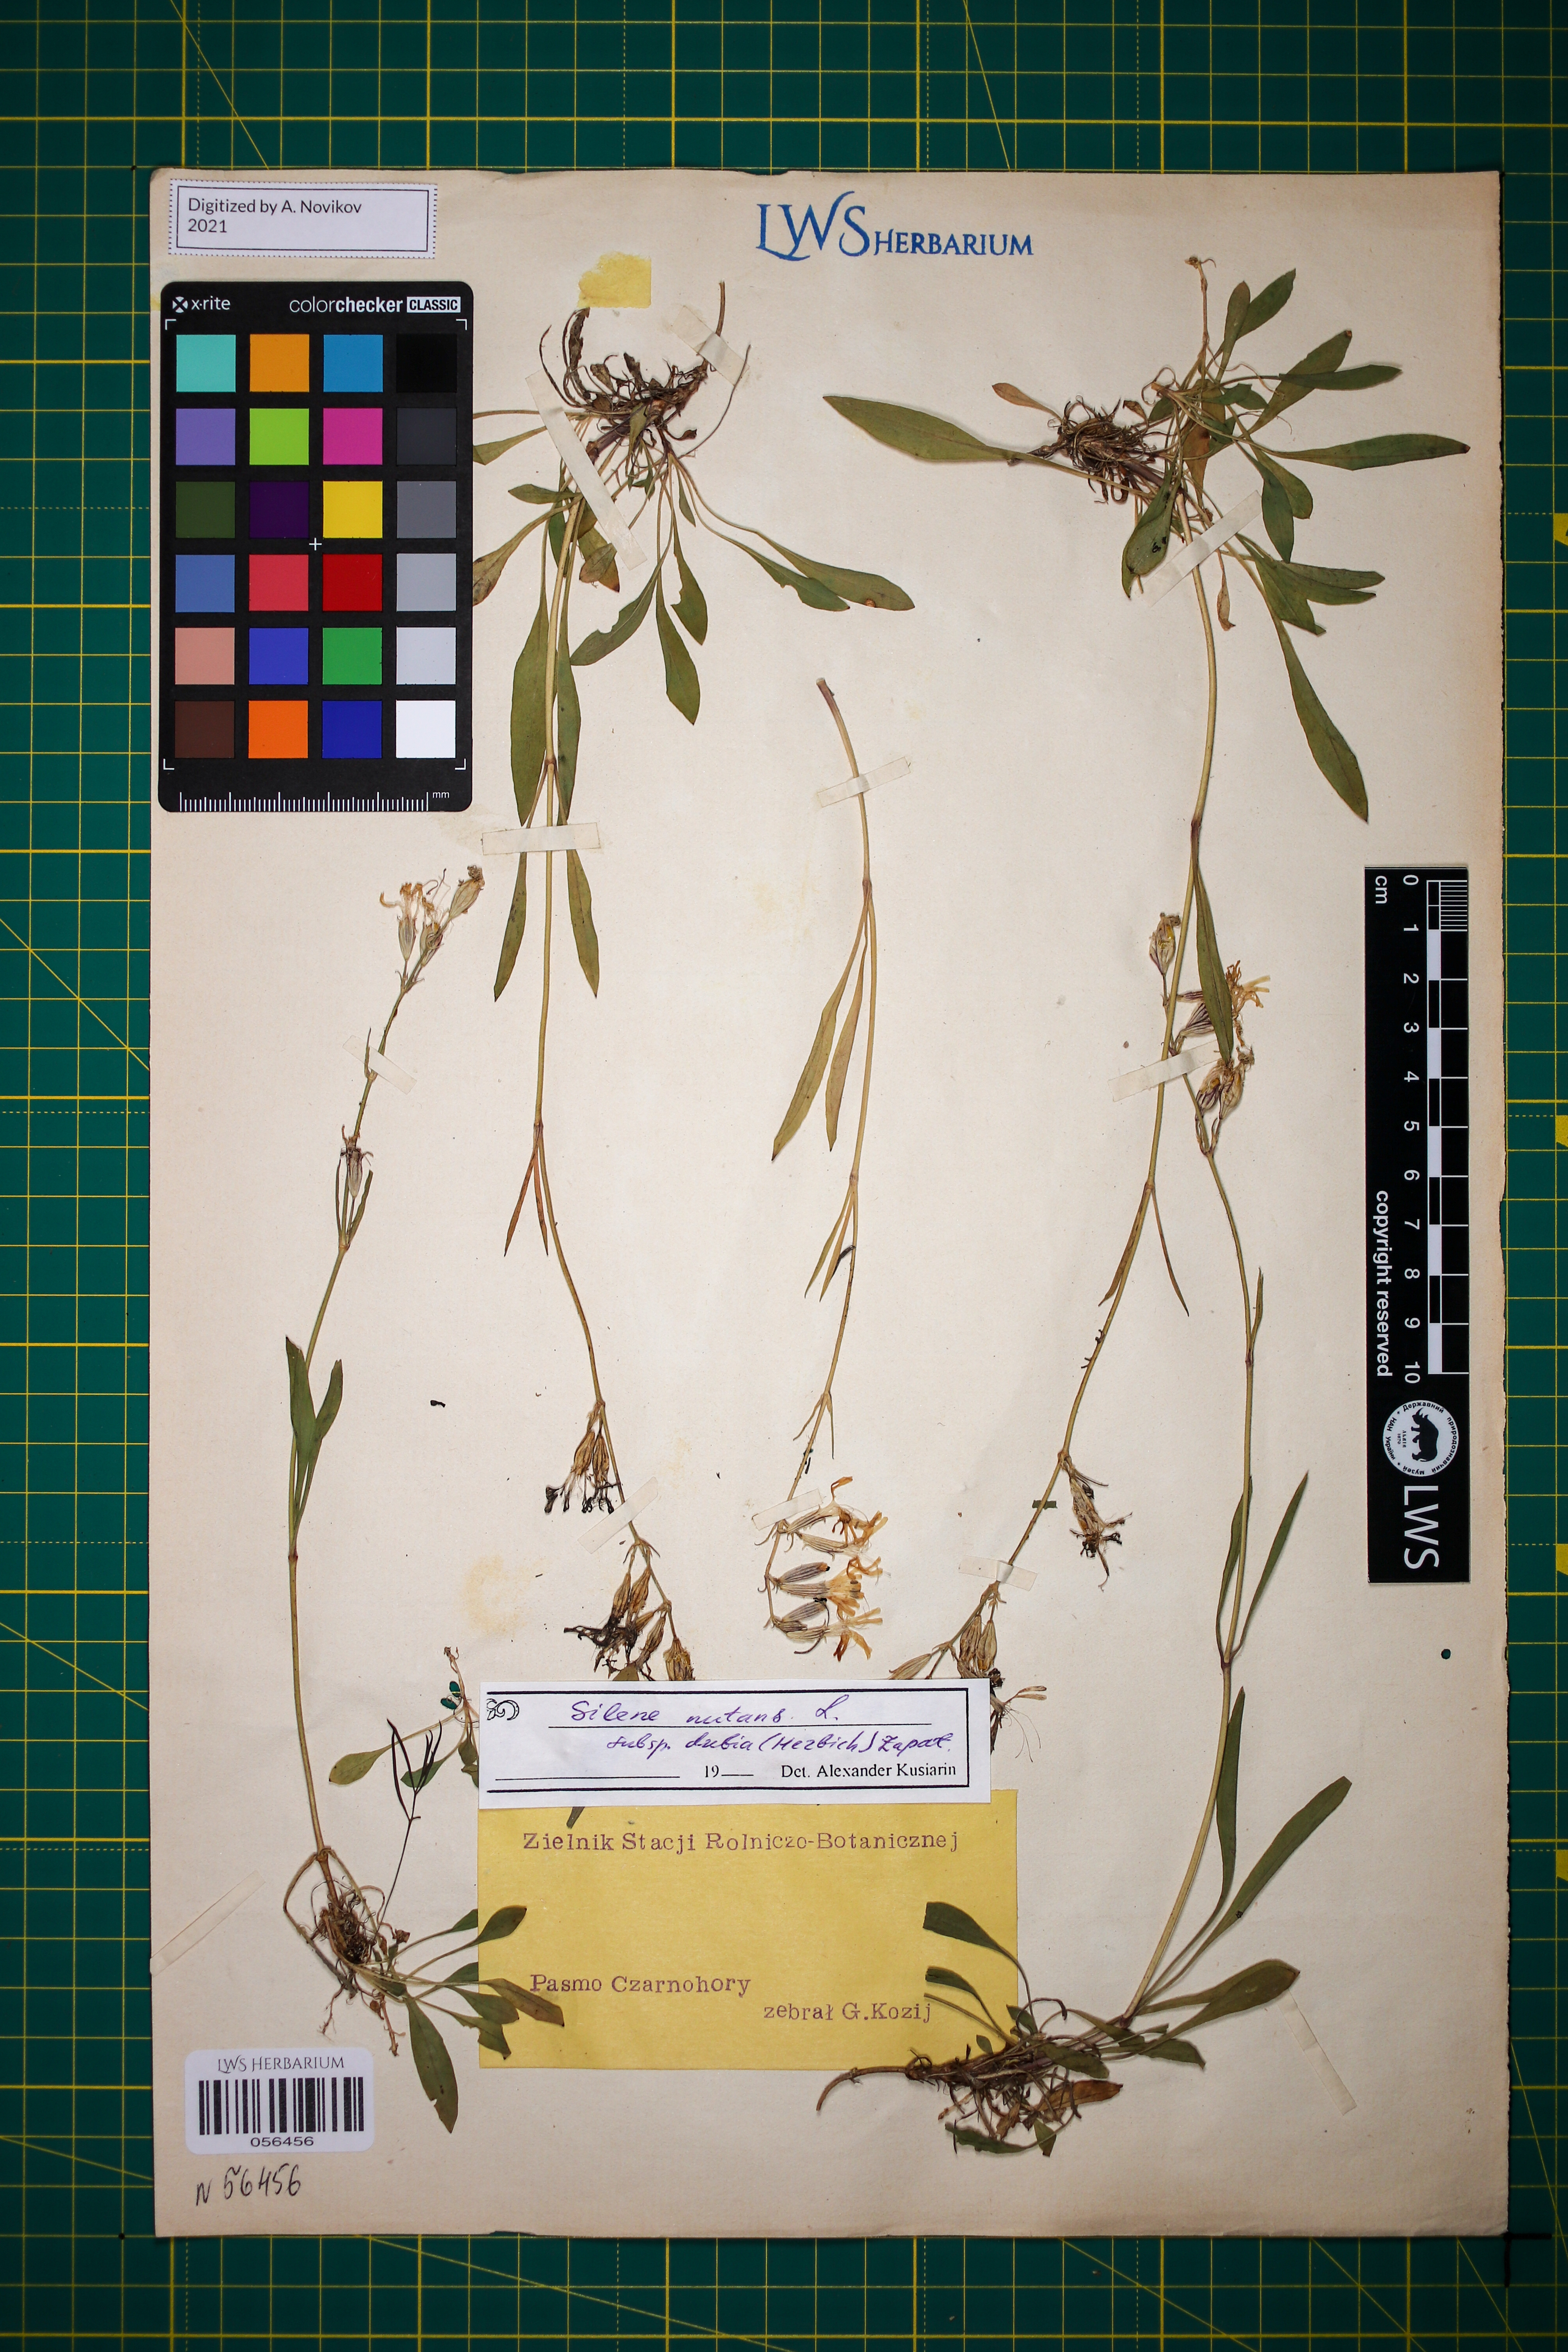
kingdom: Plantae
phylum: Tracheophyta
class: Magnoliopsida
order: Caryophyllales
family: Caryophyllaceae
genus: Silene
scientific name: Silene nutans
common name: Nottingham catchfly
